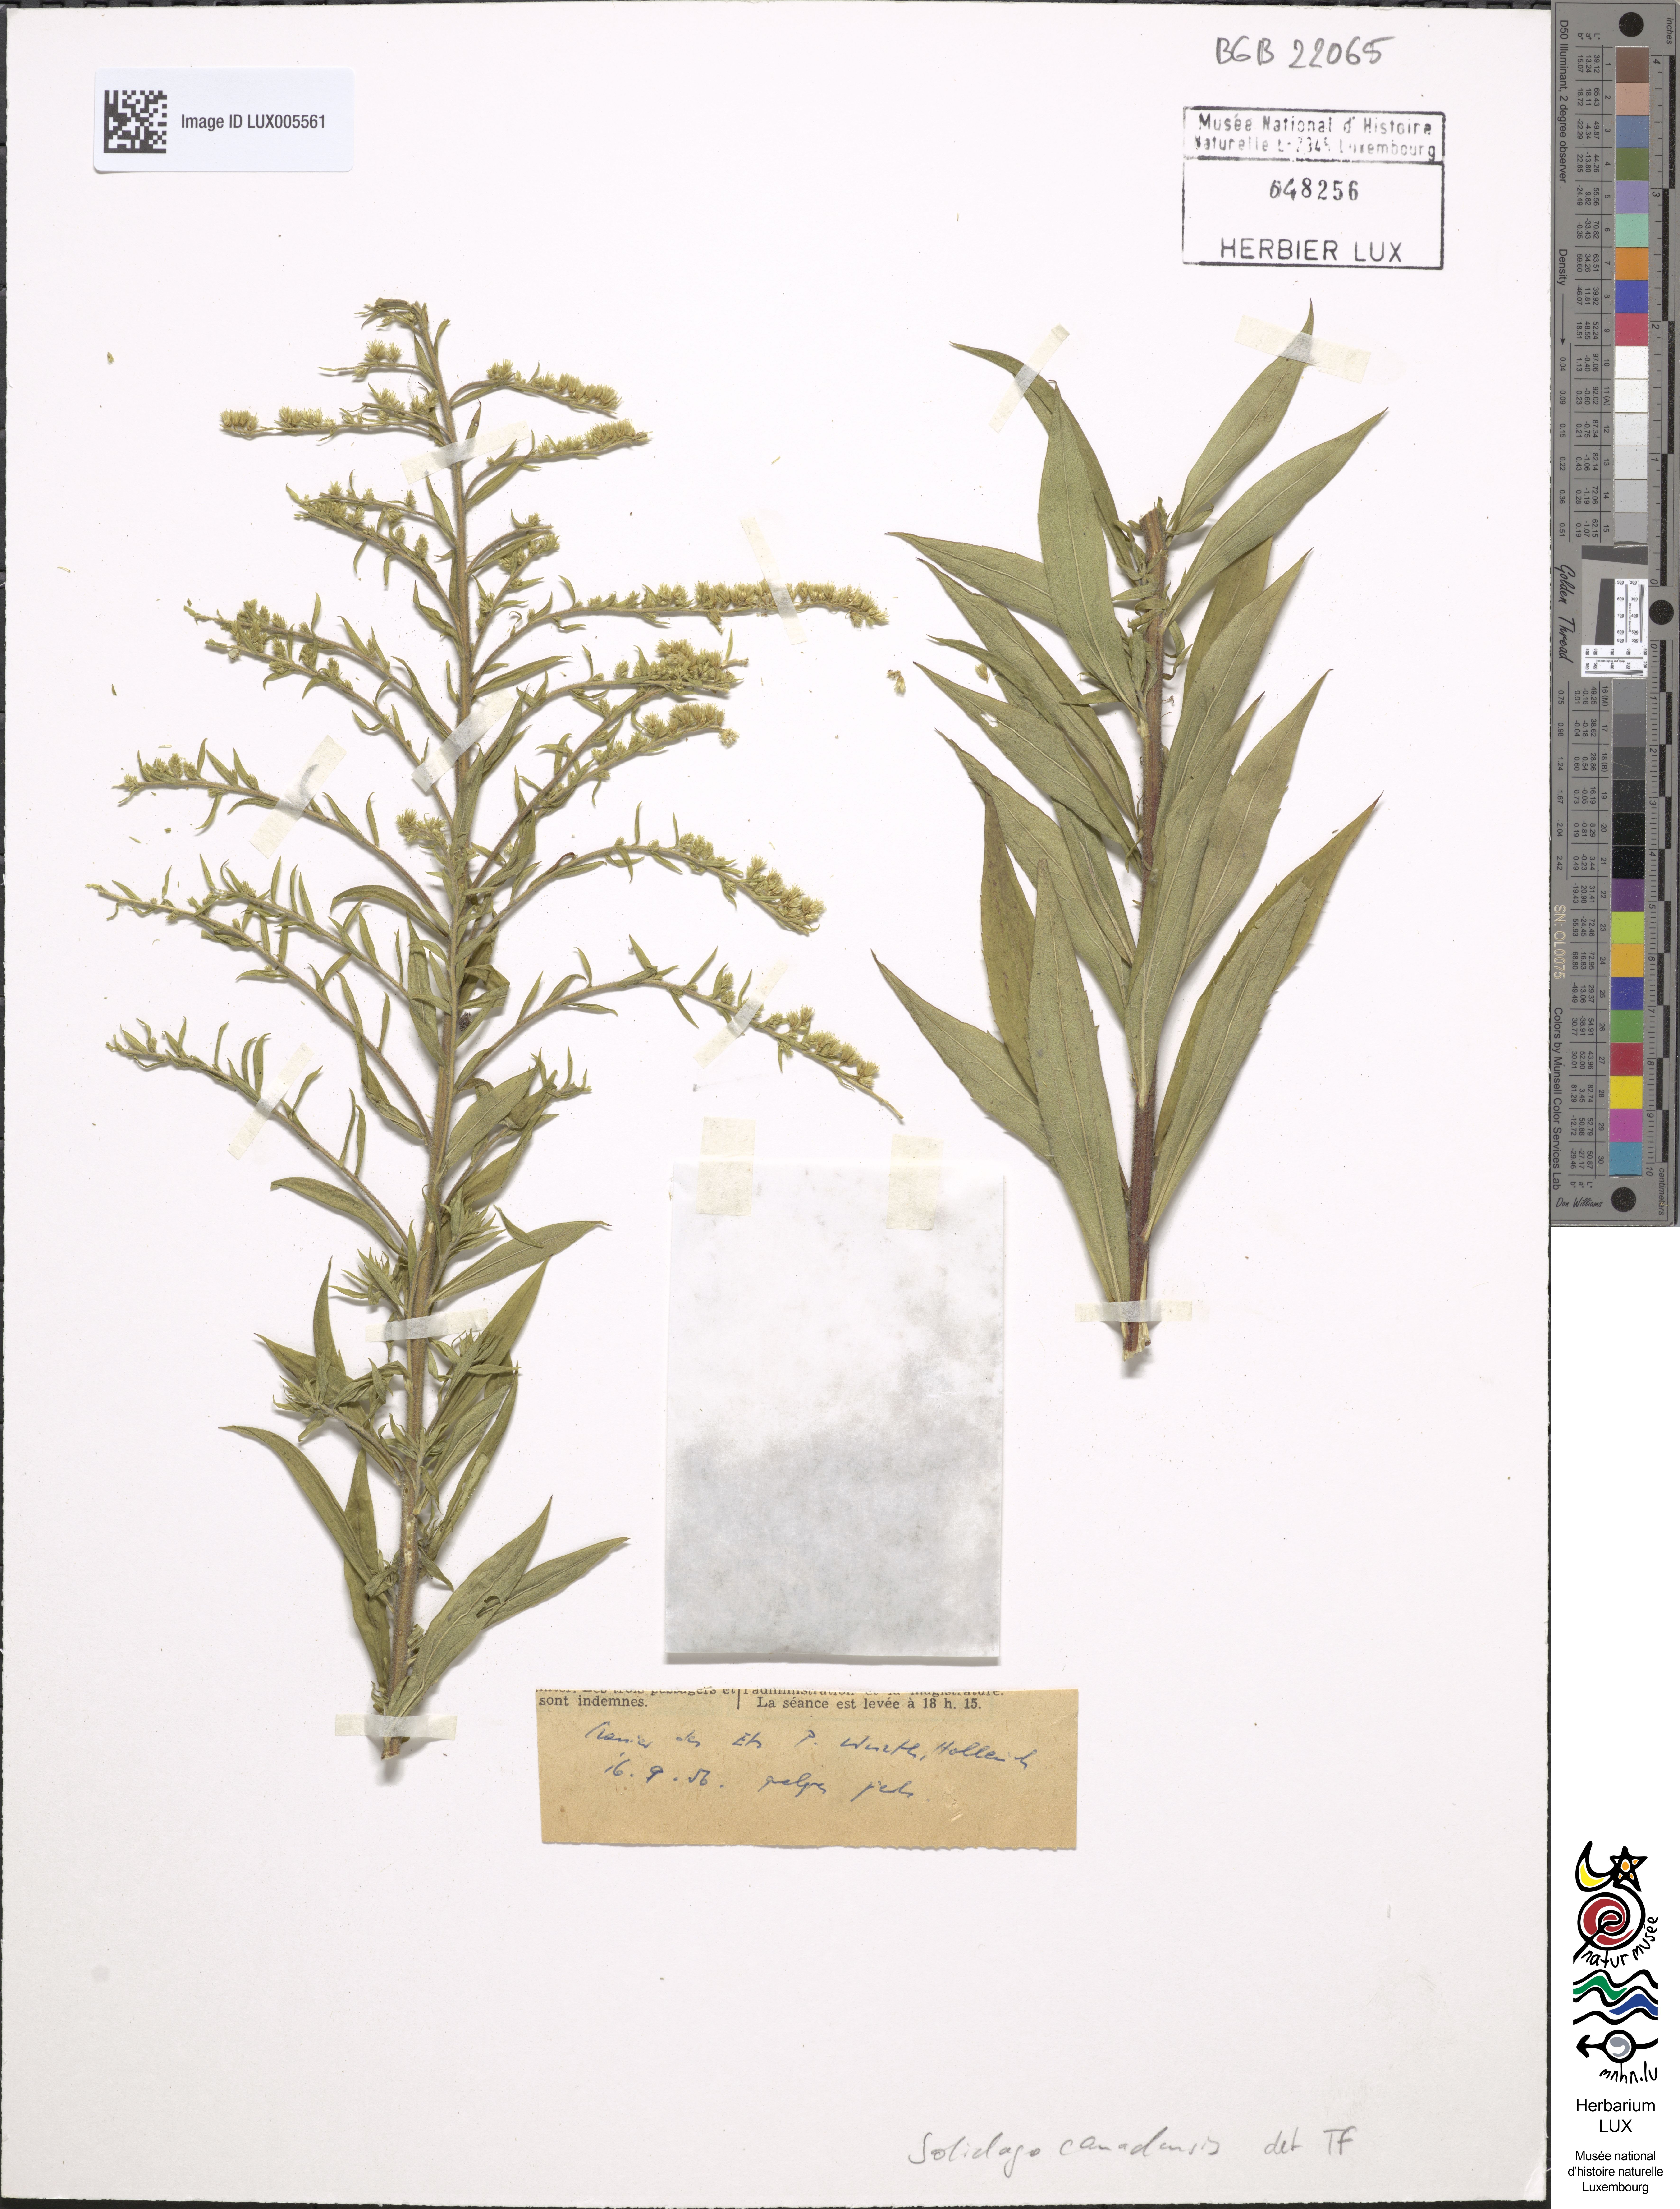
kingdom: Plantae
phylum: Tracheophyta
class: Magnoliopsida
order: Asterales
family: Asteraceae
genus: Solidago
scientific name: Solidago canadensis
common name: Canada goldenrod
